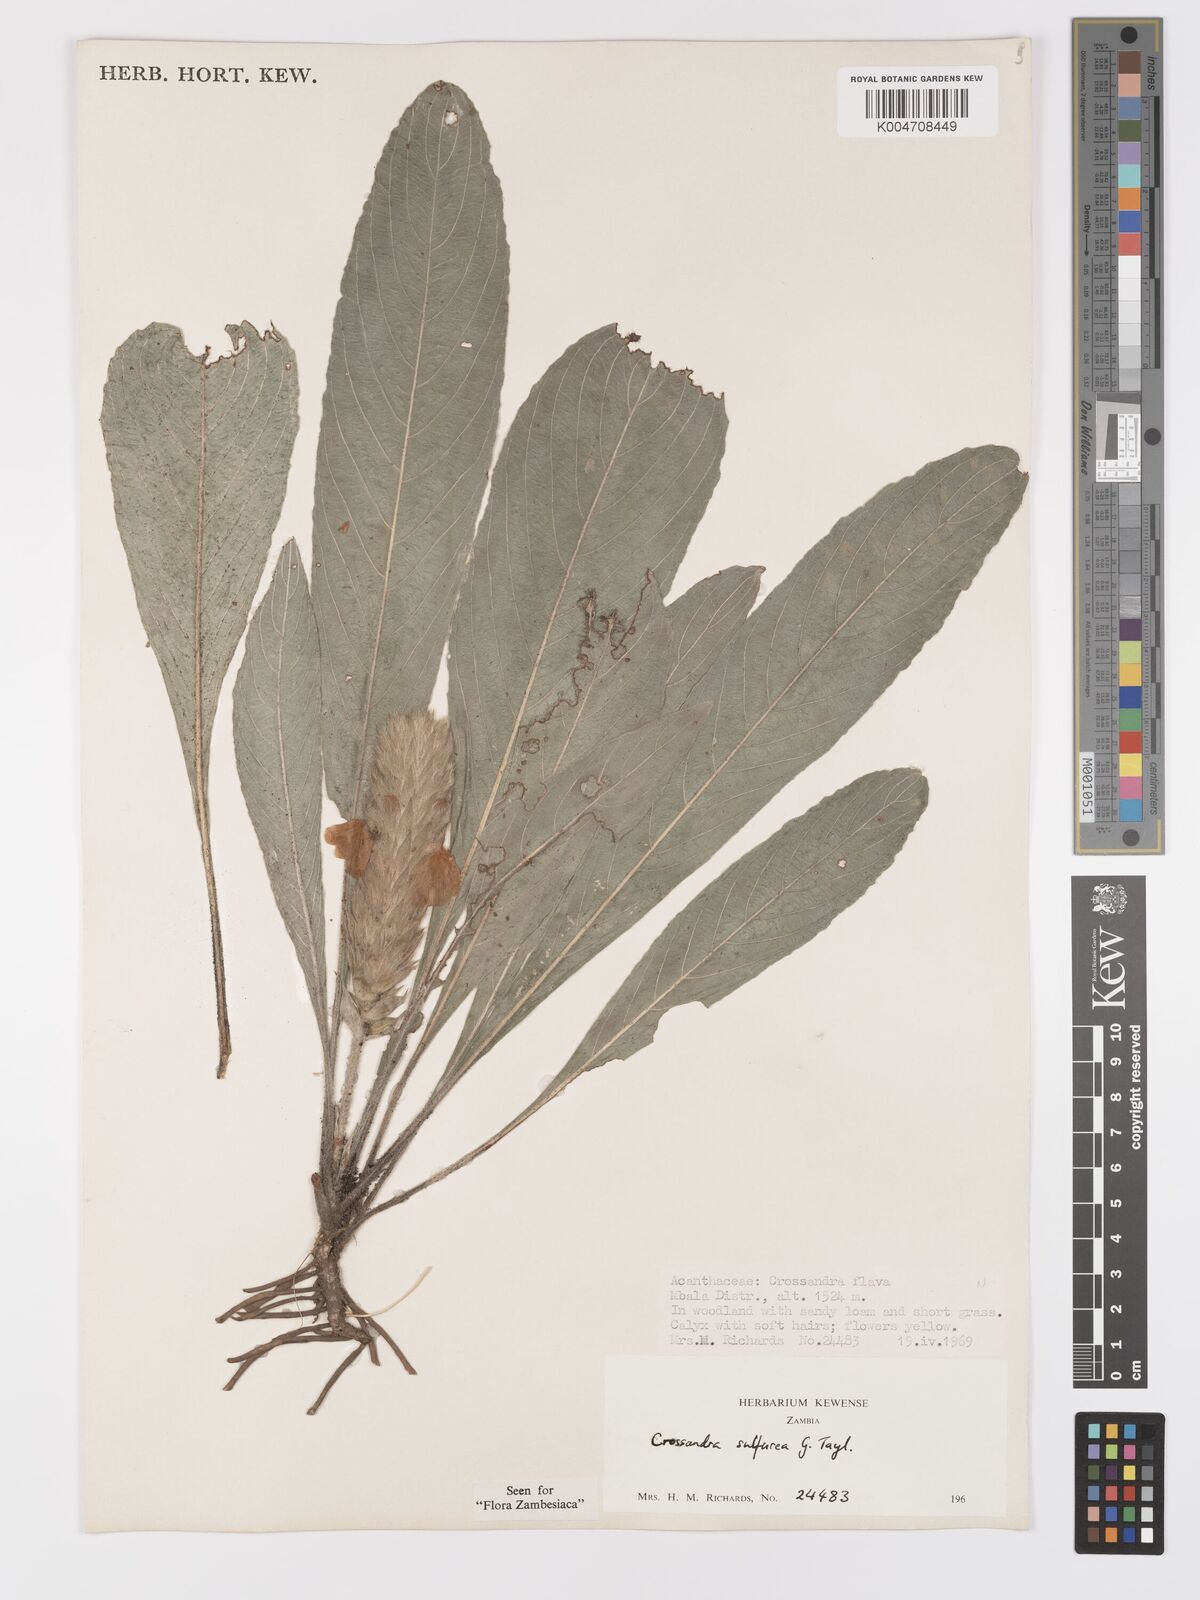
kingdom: Plantae
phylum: Tracheophyta
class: Magnoliopsida
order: Lamiales
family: Acanthaceae
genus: Crossandra
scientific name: Crossandra sulphurea
